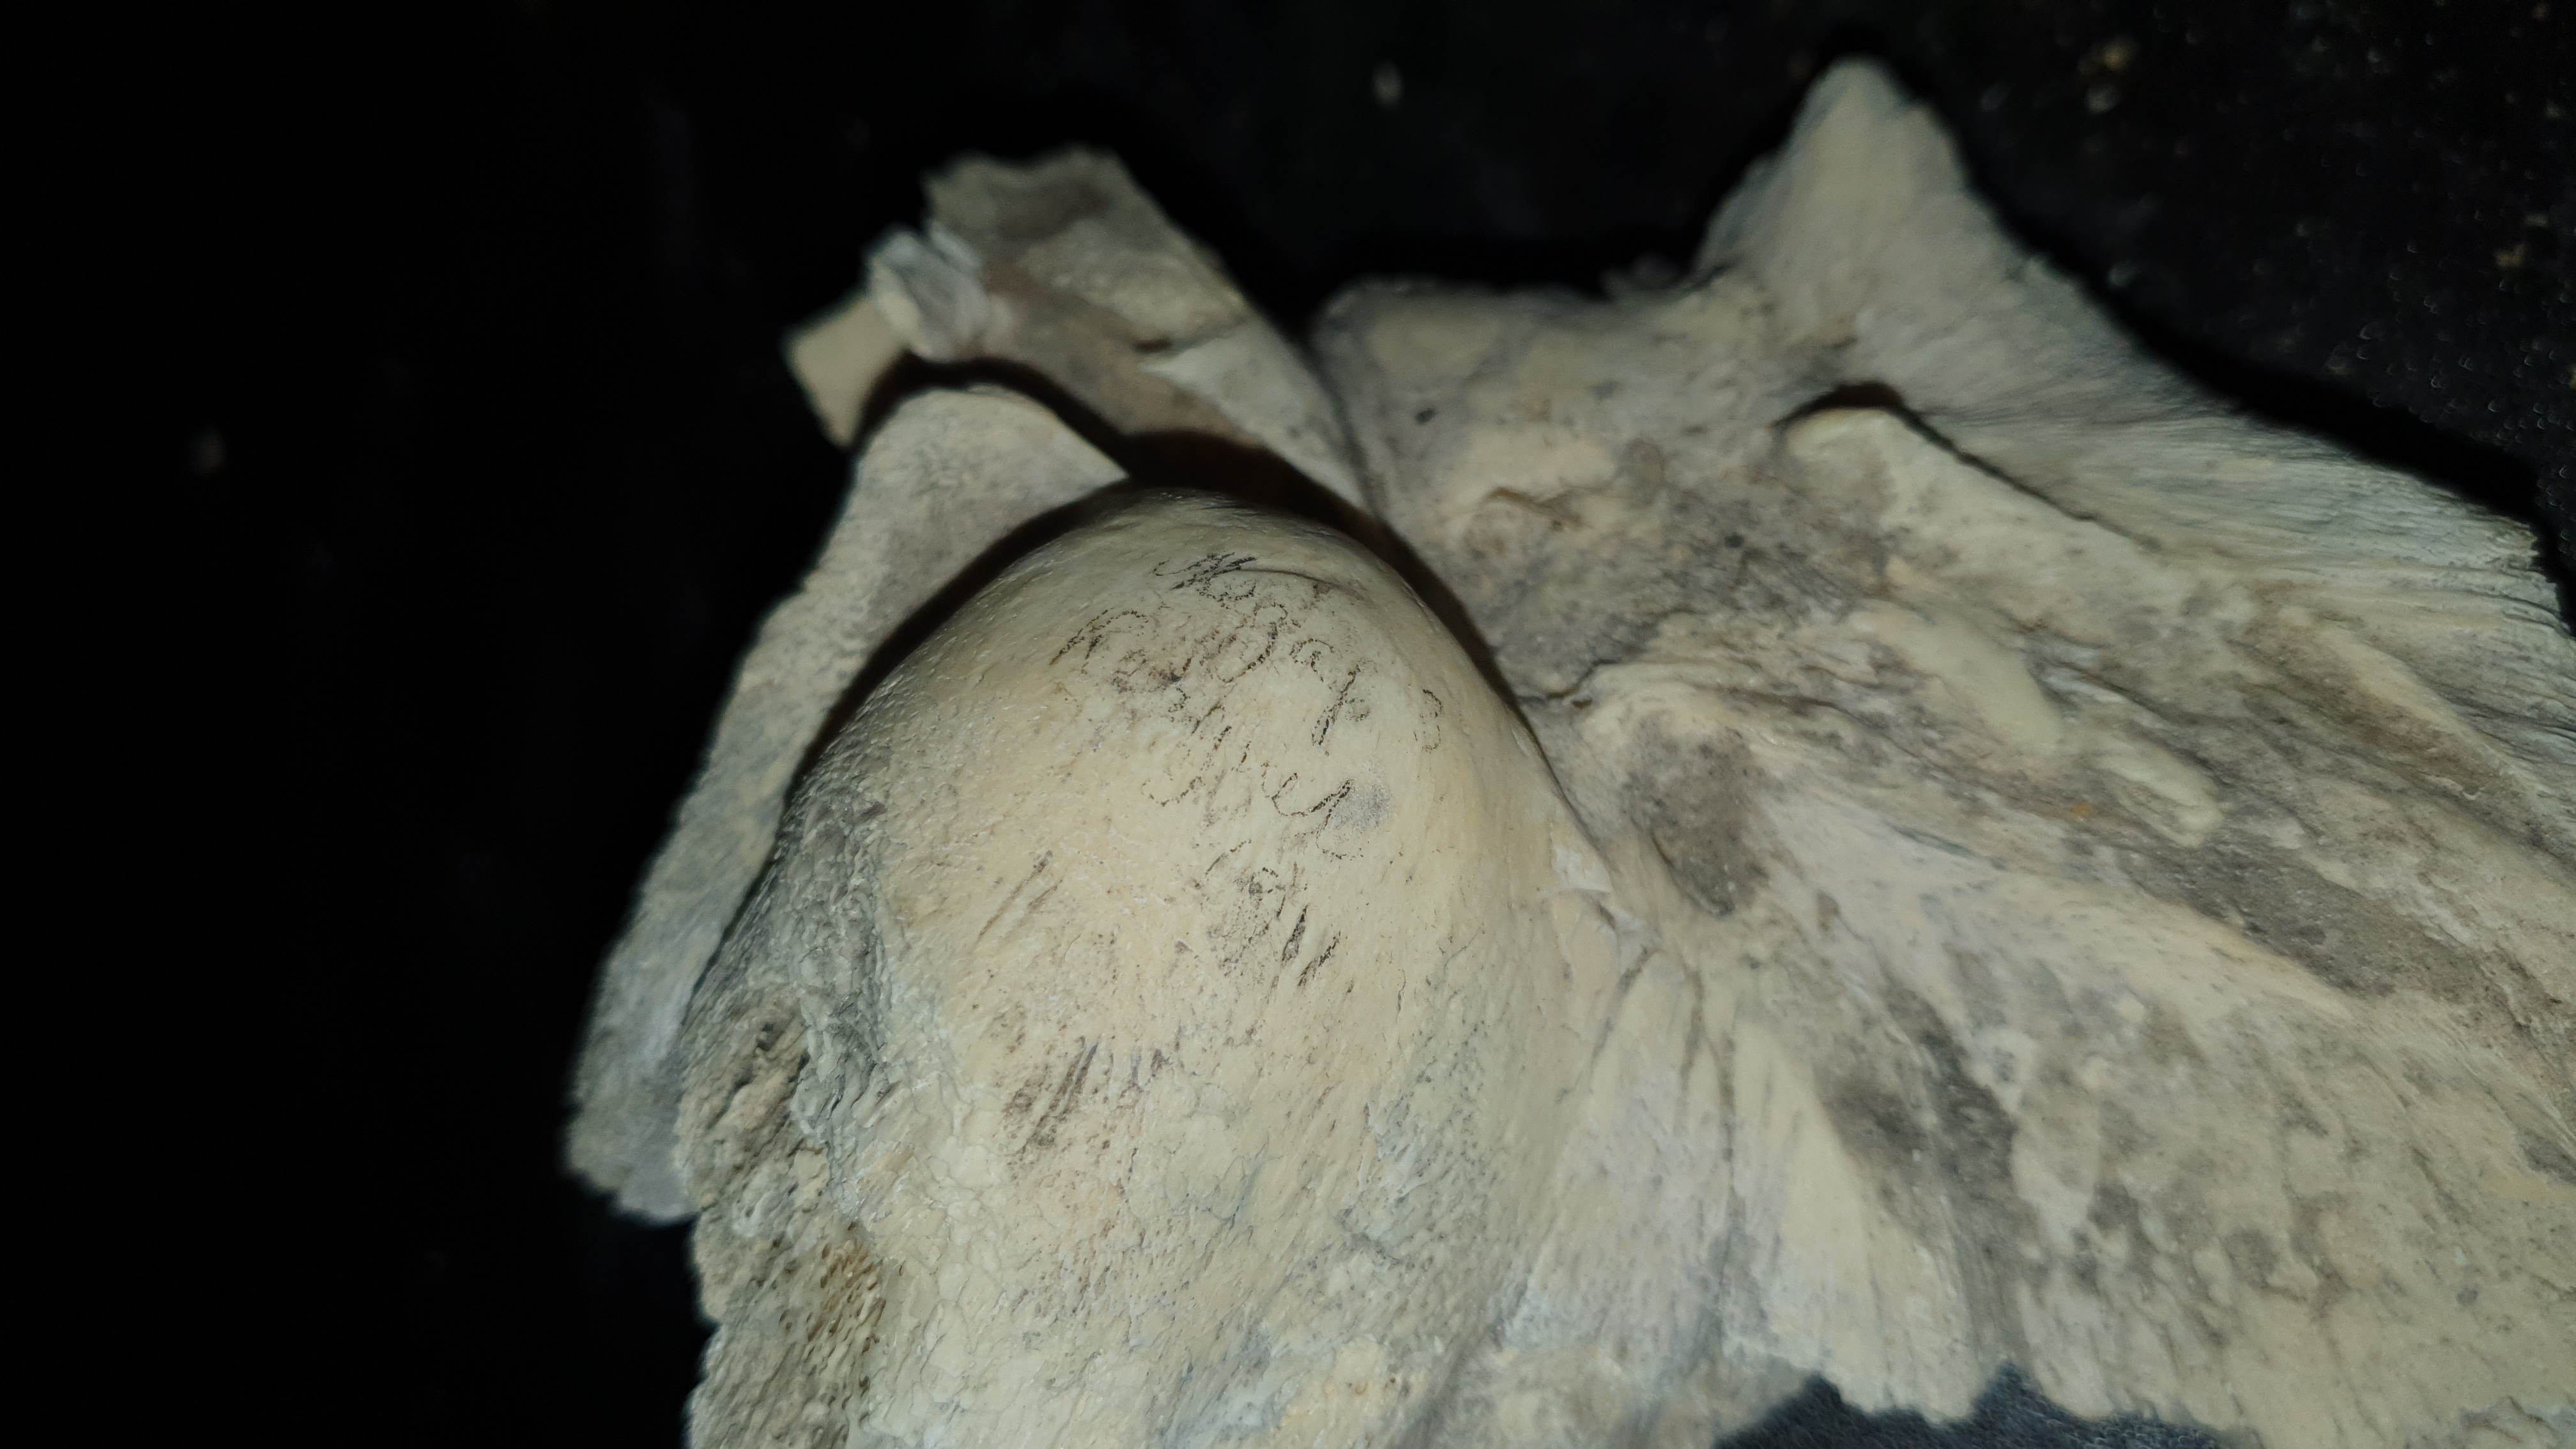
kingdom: Animalia
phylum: Chordata
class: Mammalia
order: Cetacea
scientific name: Cetacea
